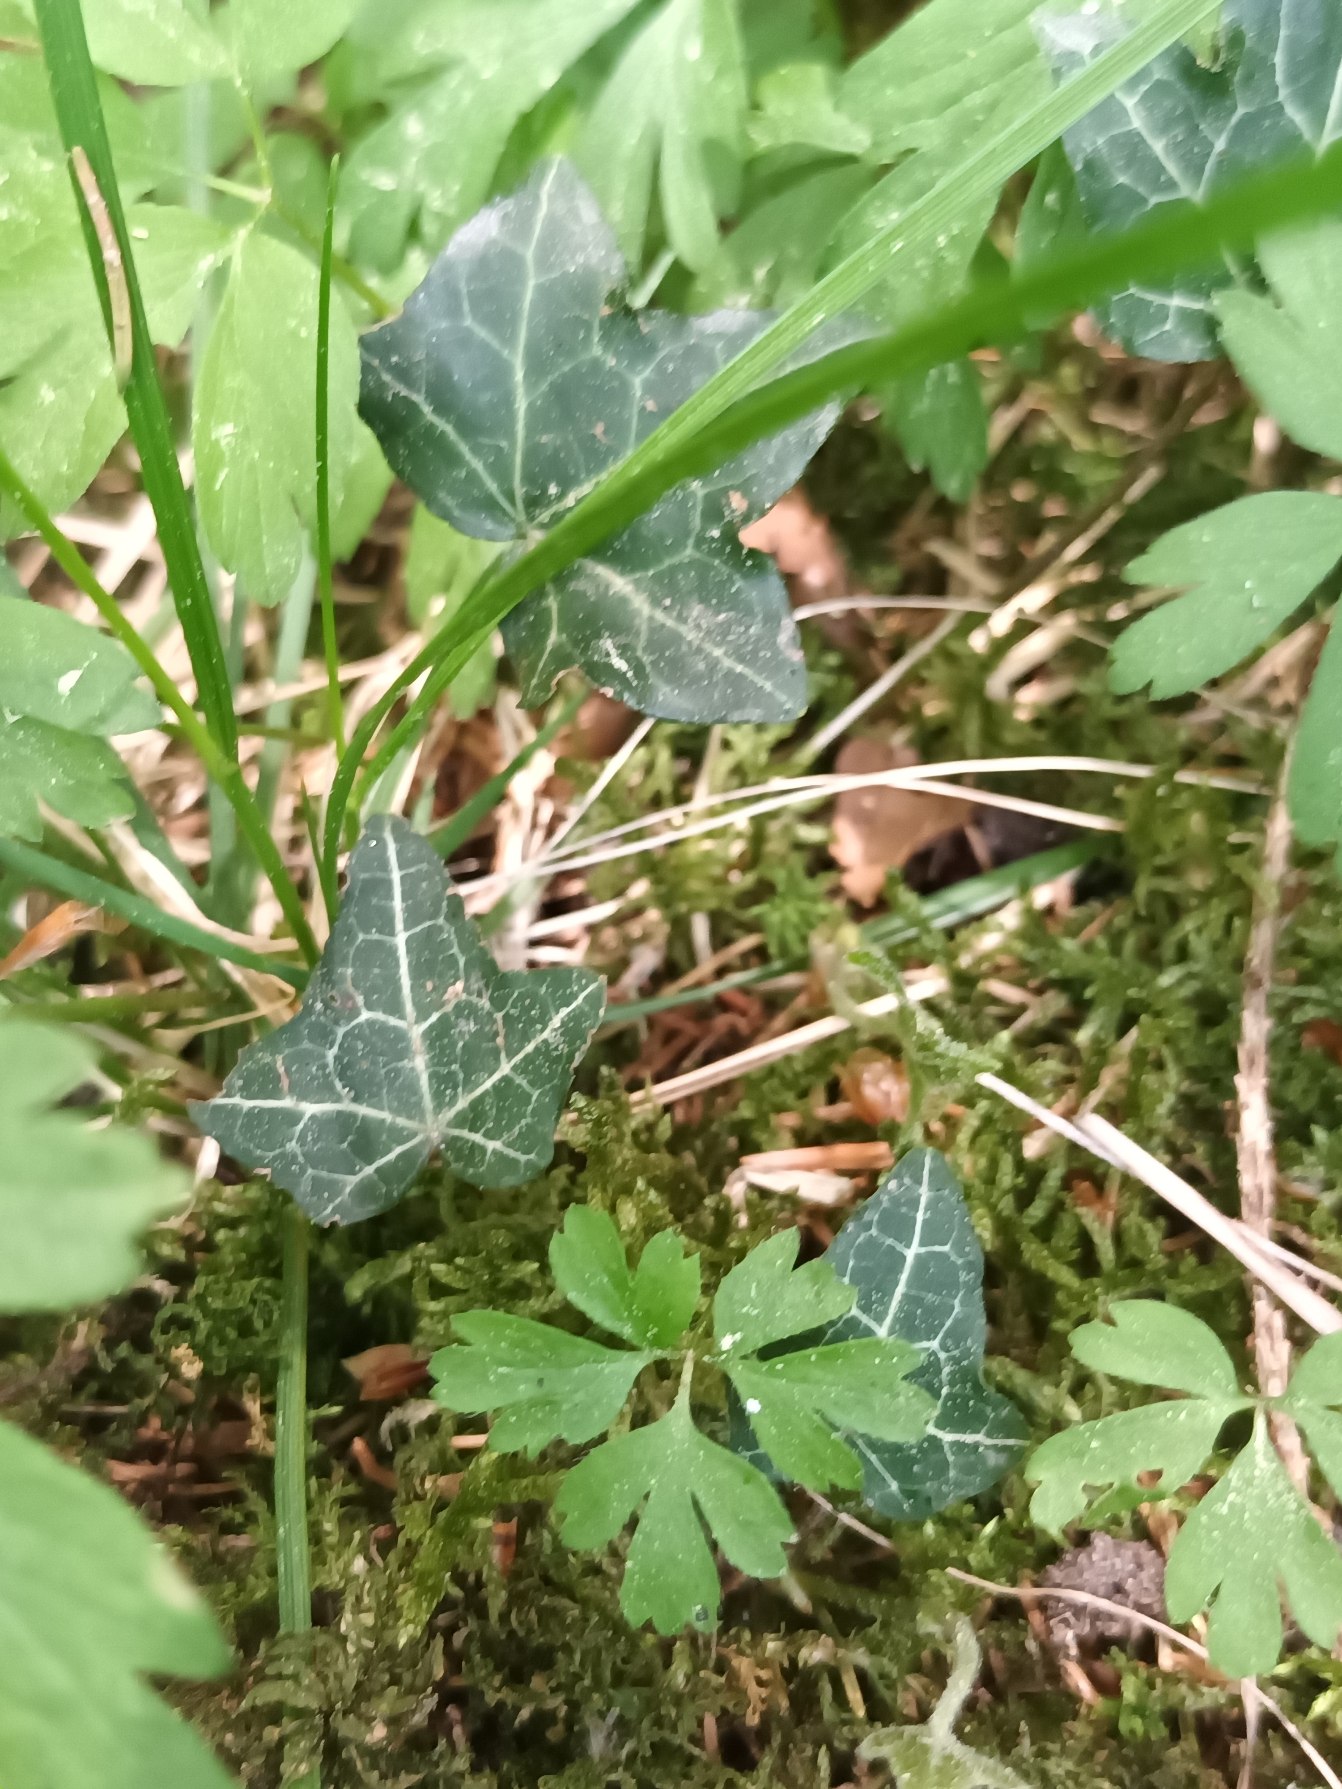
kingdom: Plantae
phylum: Tracheophyta
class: Magnoliopsida
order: Apiales
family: Araliaceae
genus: Hedera
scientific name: Hedera helix
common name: Vedbend
